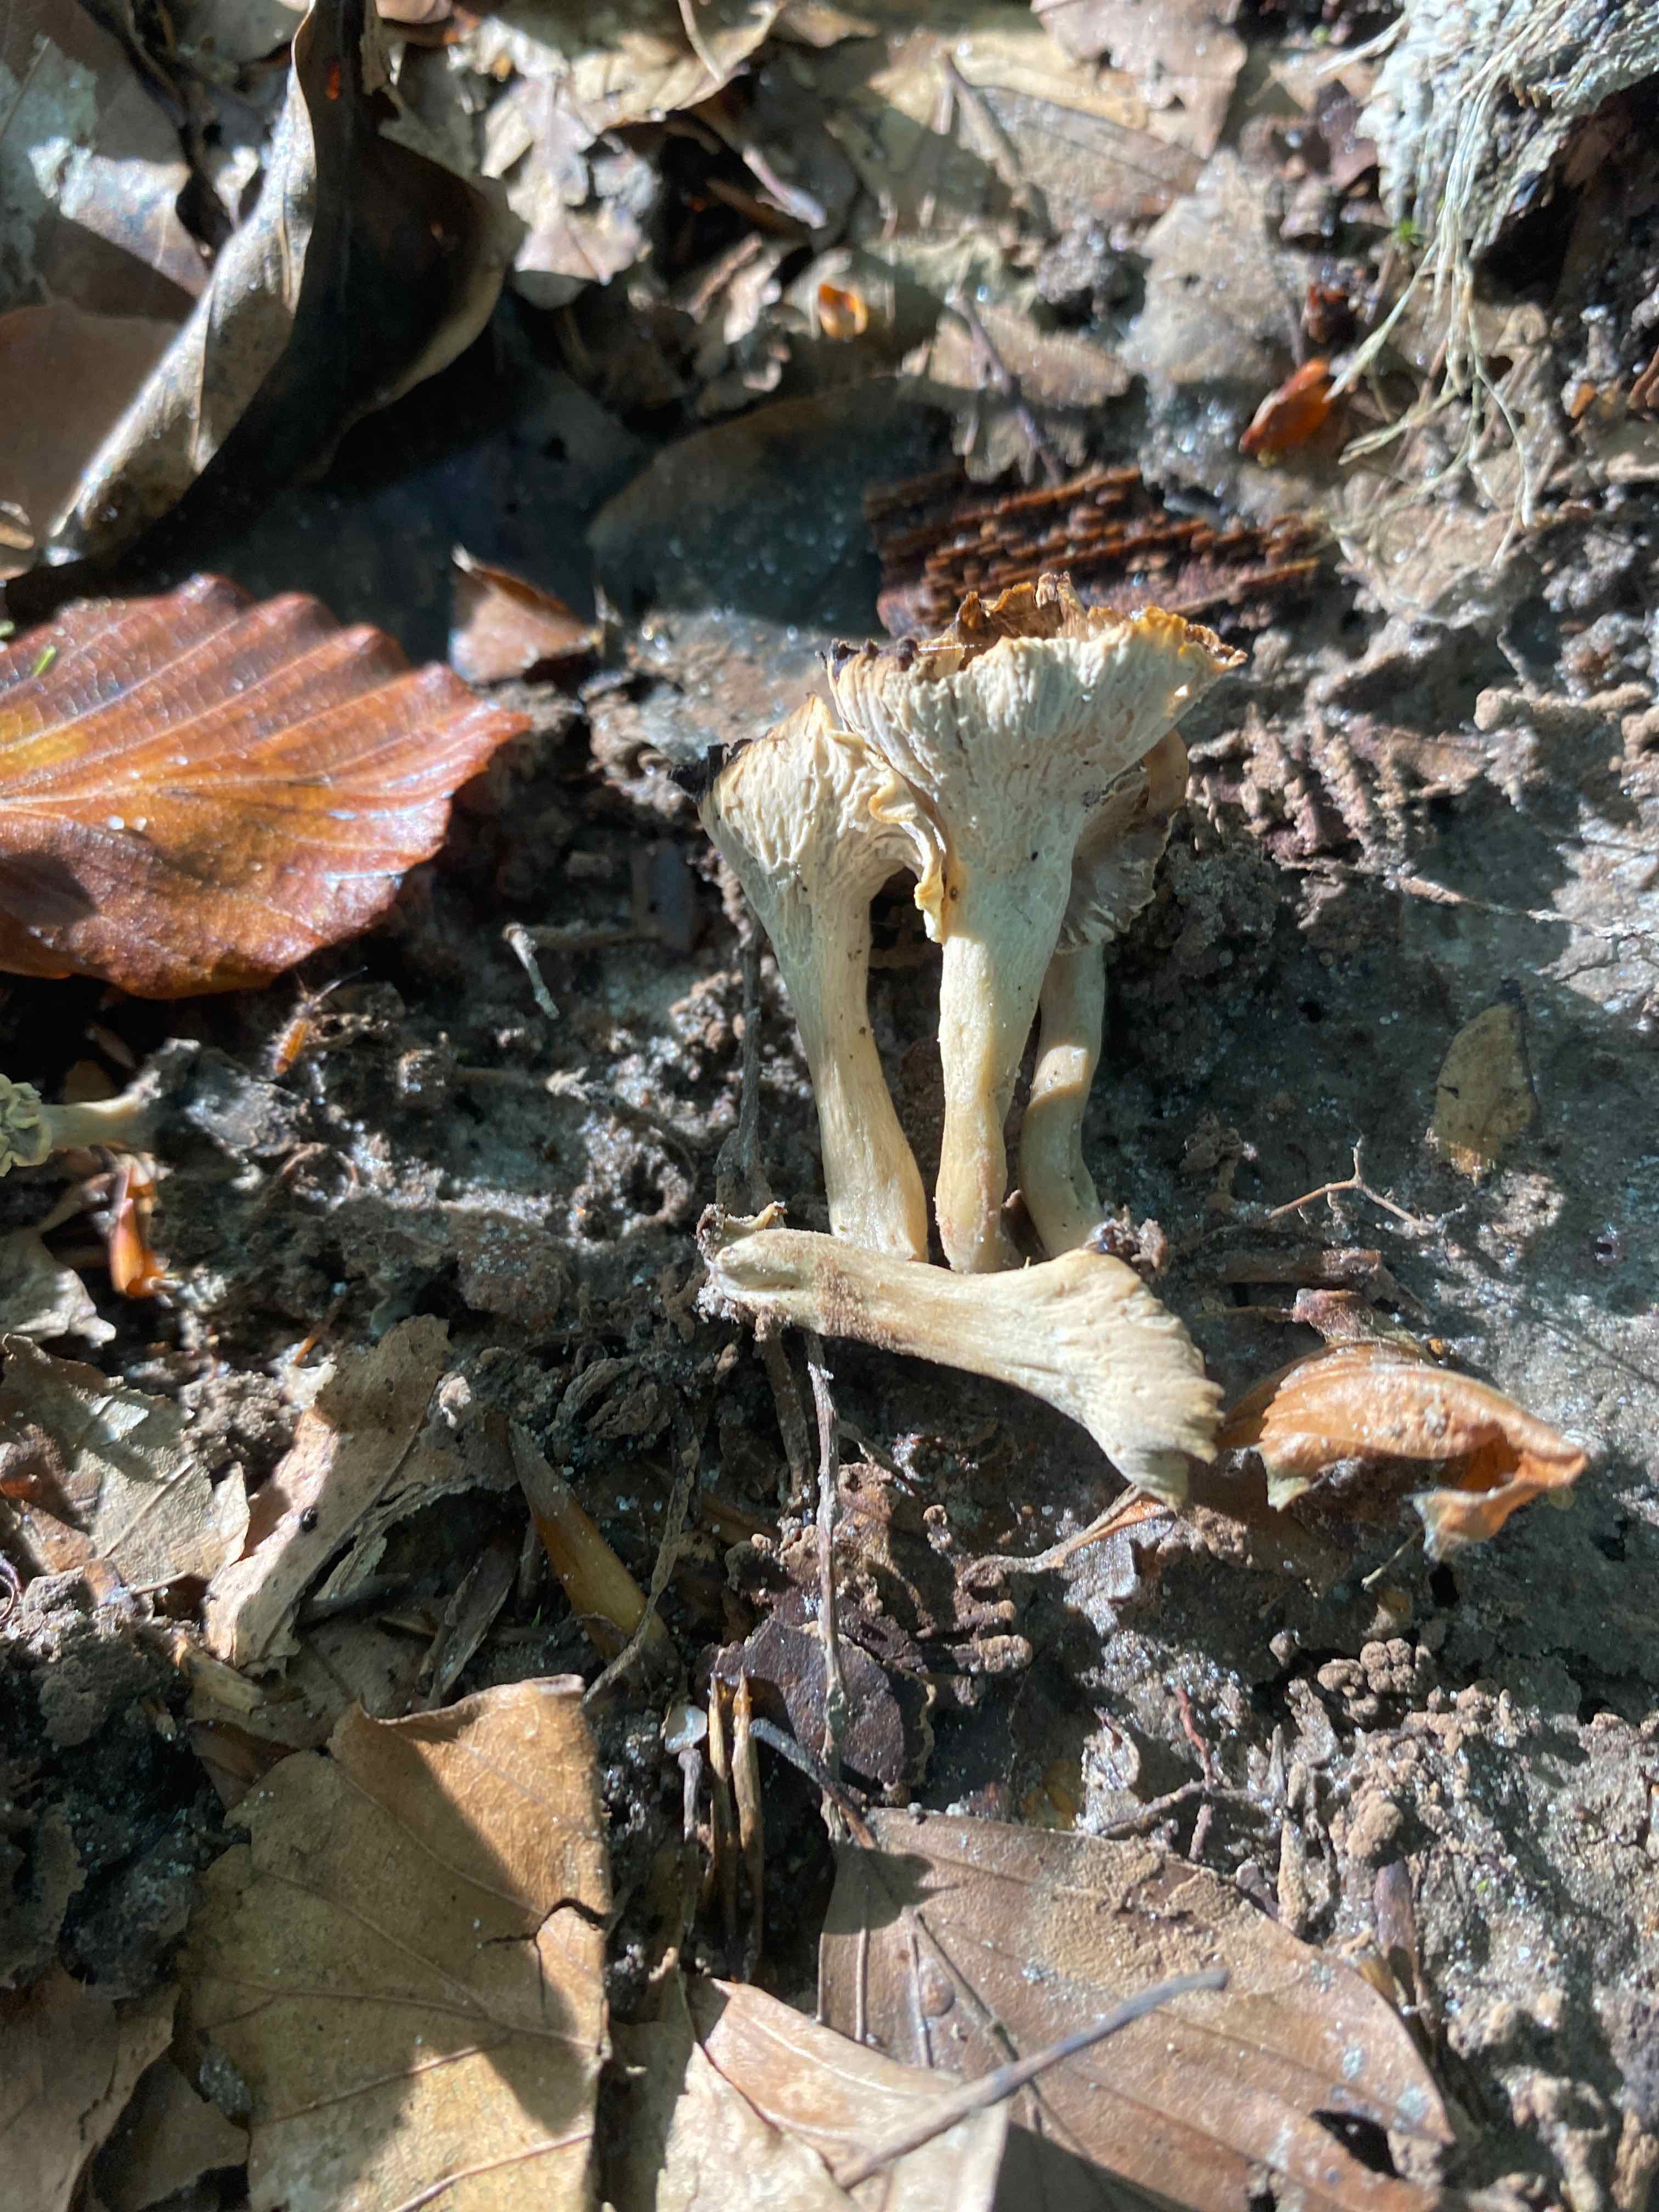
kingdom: Fungi
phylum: Basidiomycota
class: Agaricomycetes
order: Cantharellales
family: Hydnaceae
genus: Craterellus
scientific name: Craterellus undulatus
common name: liden kantarel
